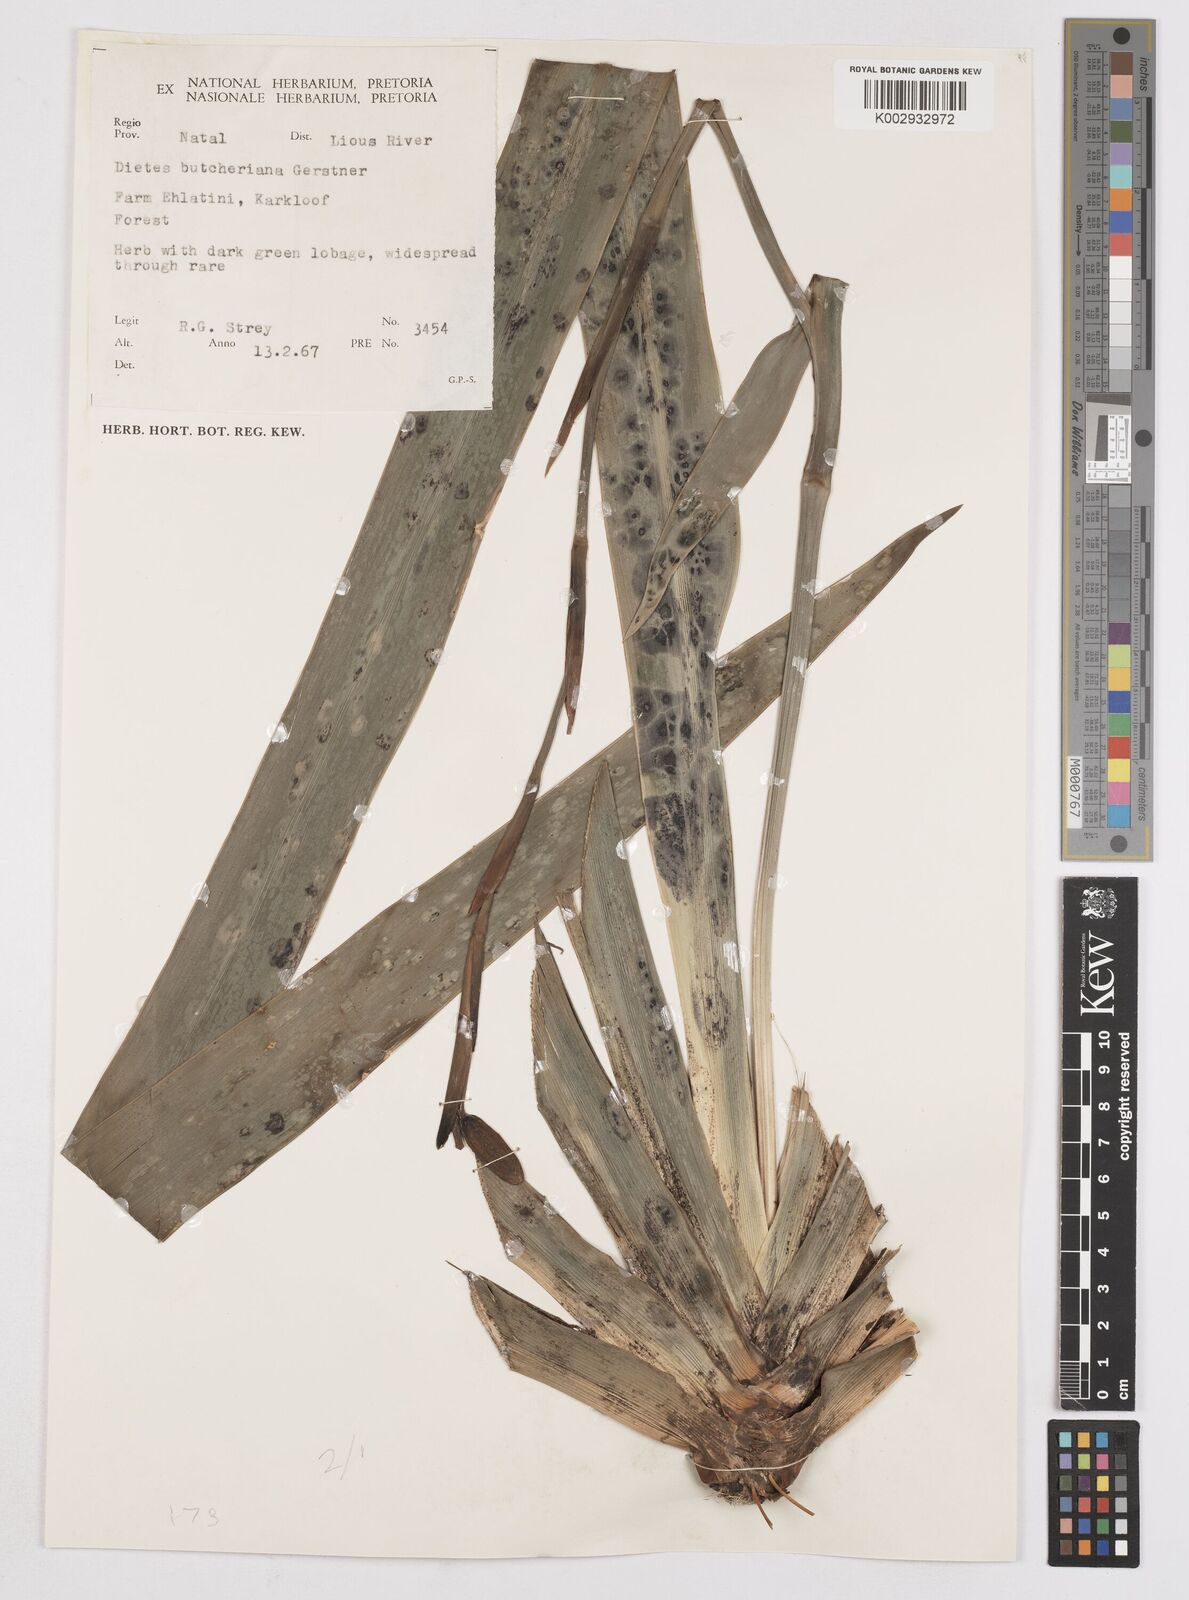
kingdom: Plantae
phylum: Tracheophyta
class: Liliopsida
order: Asparagales
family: Iridaceae
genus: Dietes
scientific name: Dietes butcheriana
